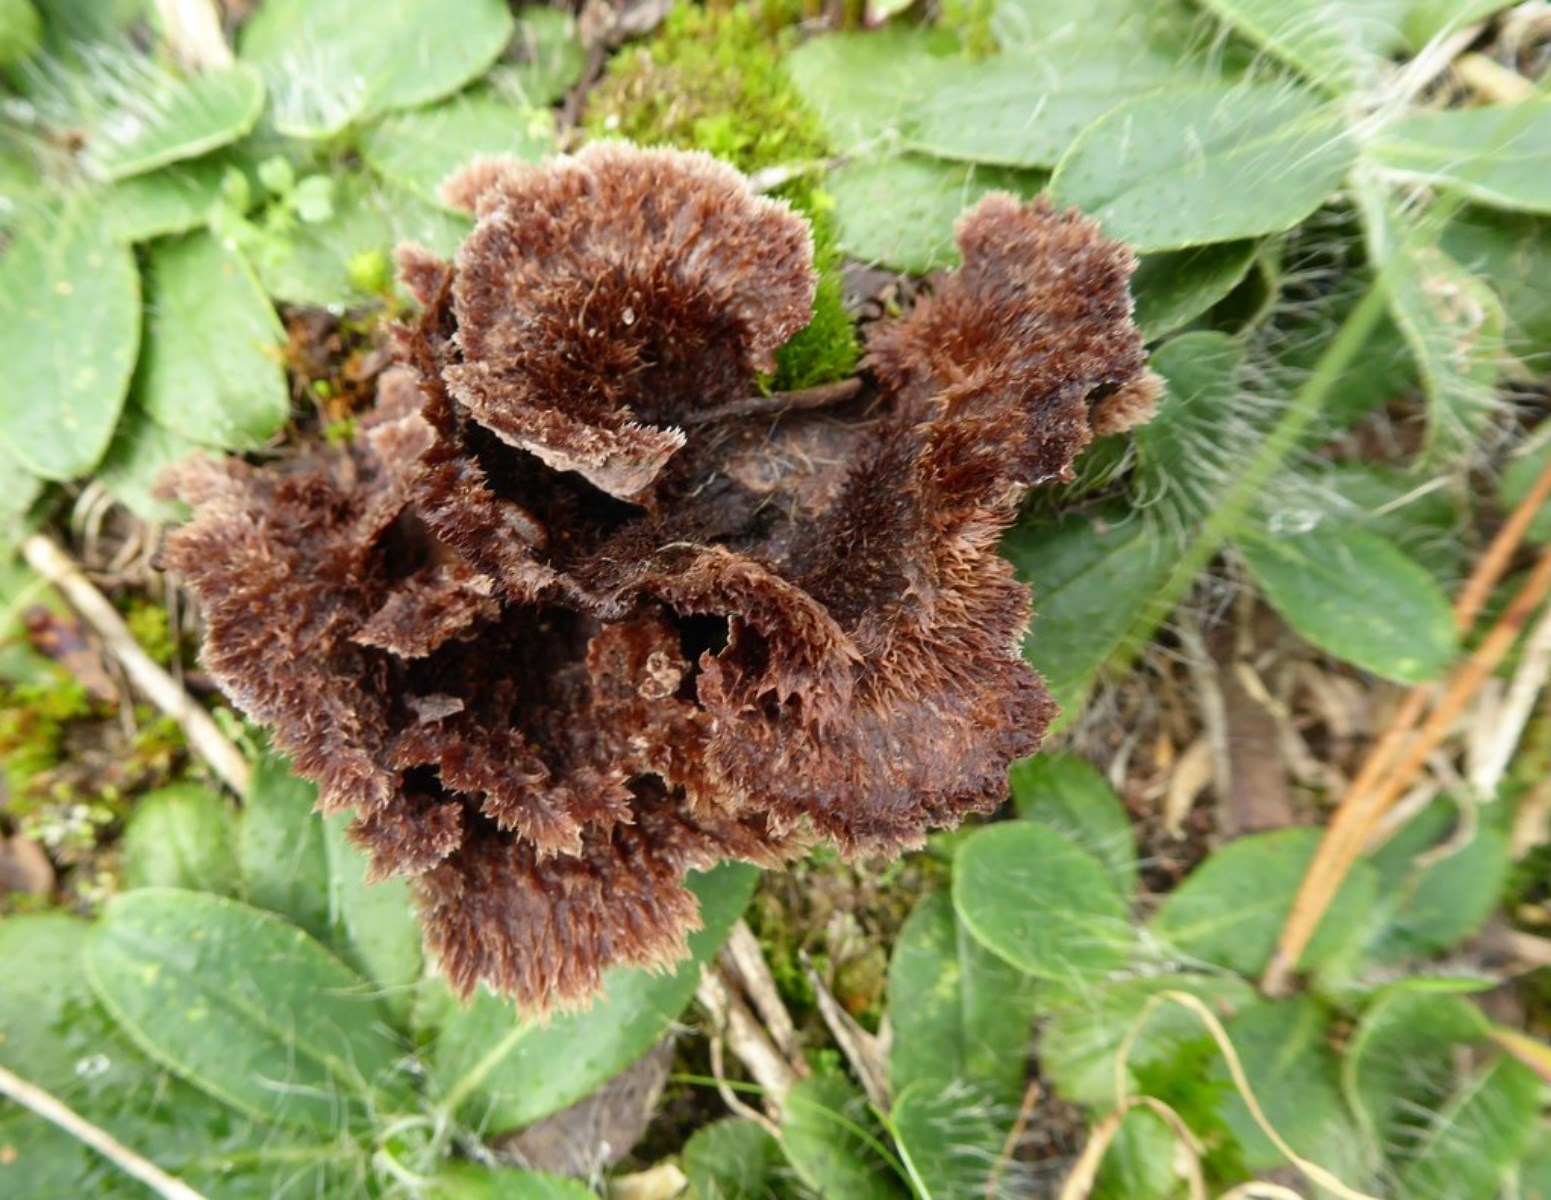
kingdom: Fungi
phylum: Basidiomycota
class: Agaricomycetes
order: Thelephorales
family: Thelephoraceae
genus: Thelephora
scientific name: Thelephora terrestris
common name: fliget frynsesvamp
